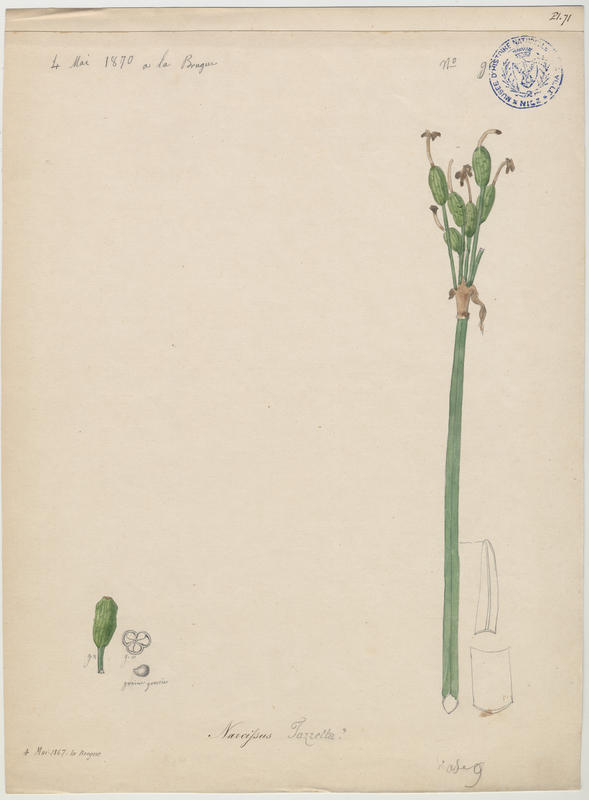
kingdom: Plantae
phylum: Tracheophyta
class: Liliopsida
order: Asparagales
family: Amaryllidaceae
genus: Narcissus
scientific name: Narcissus tazetta
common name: Bunch-flowered daffodil
